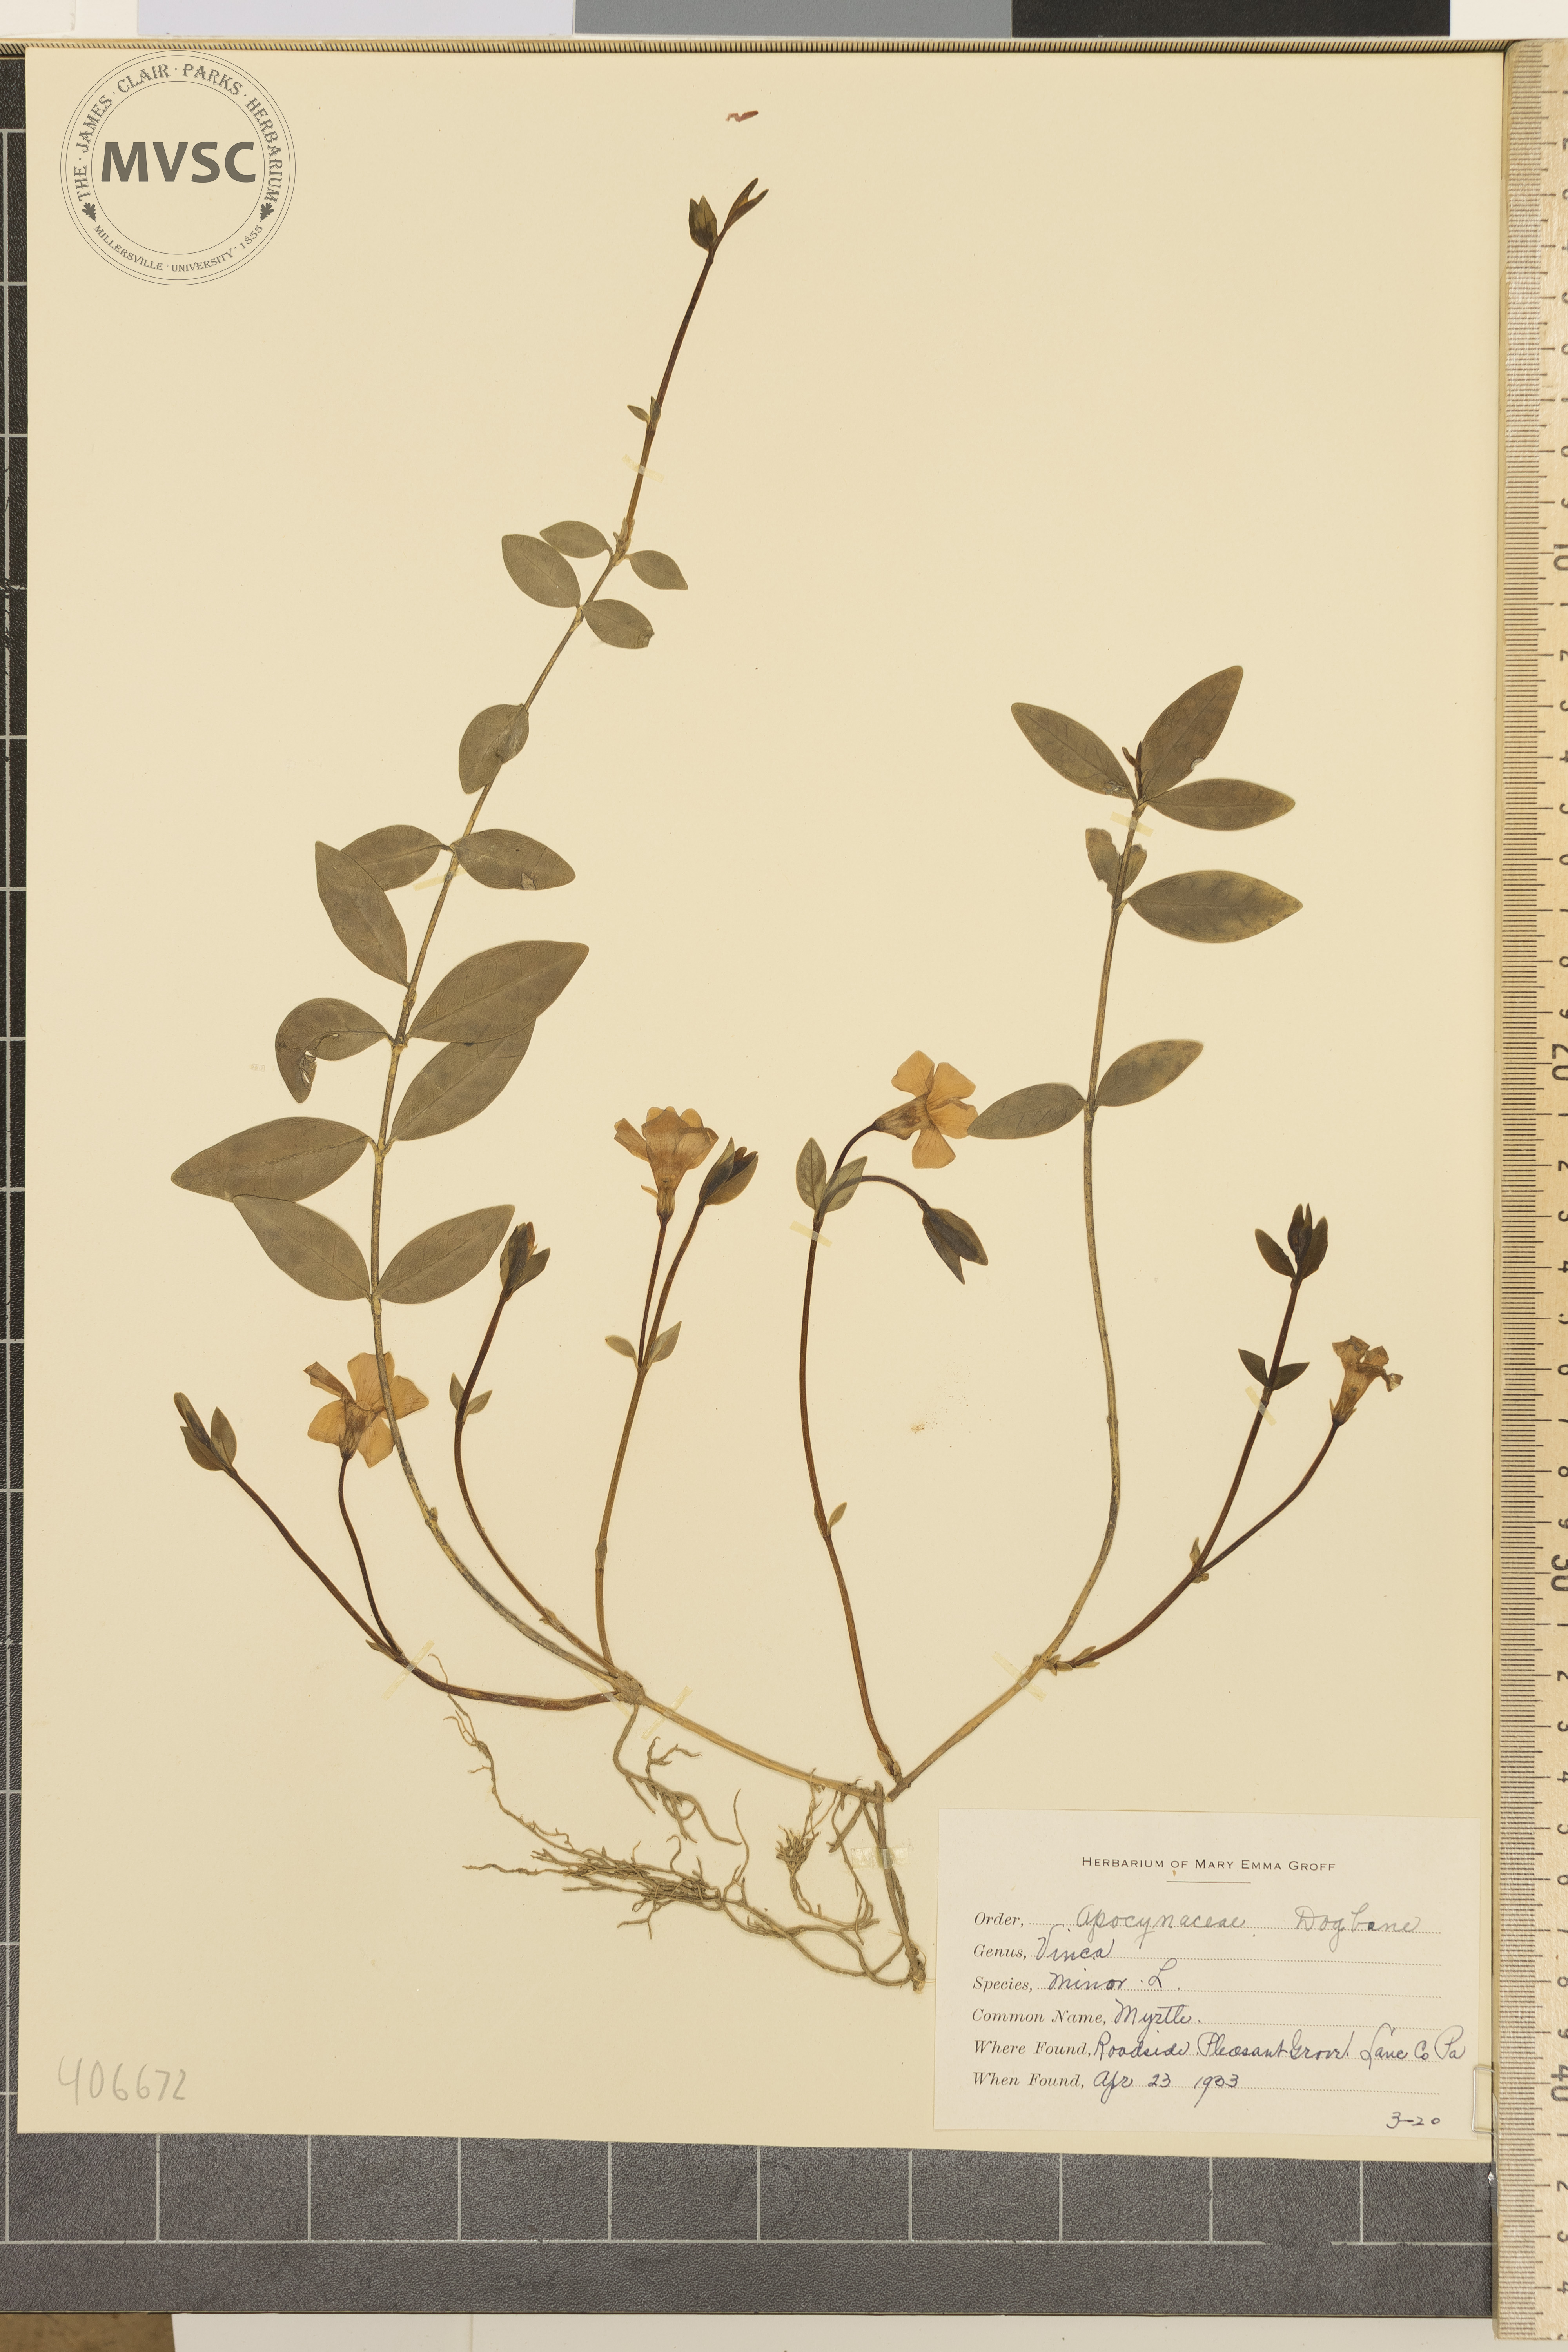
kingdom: Plantae
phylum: Tracheophyta
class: Magnoliopsida
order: Gentianales
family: Apocynaceae
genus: Vinca
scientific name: Vinca minor
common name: Myrtle
